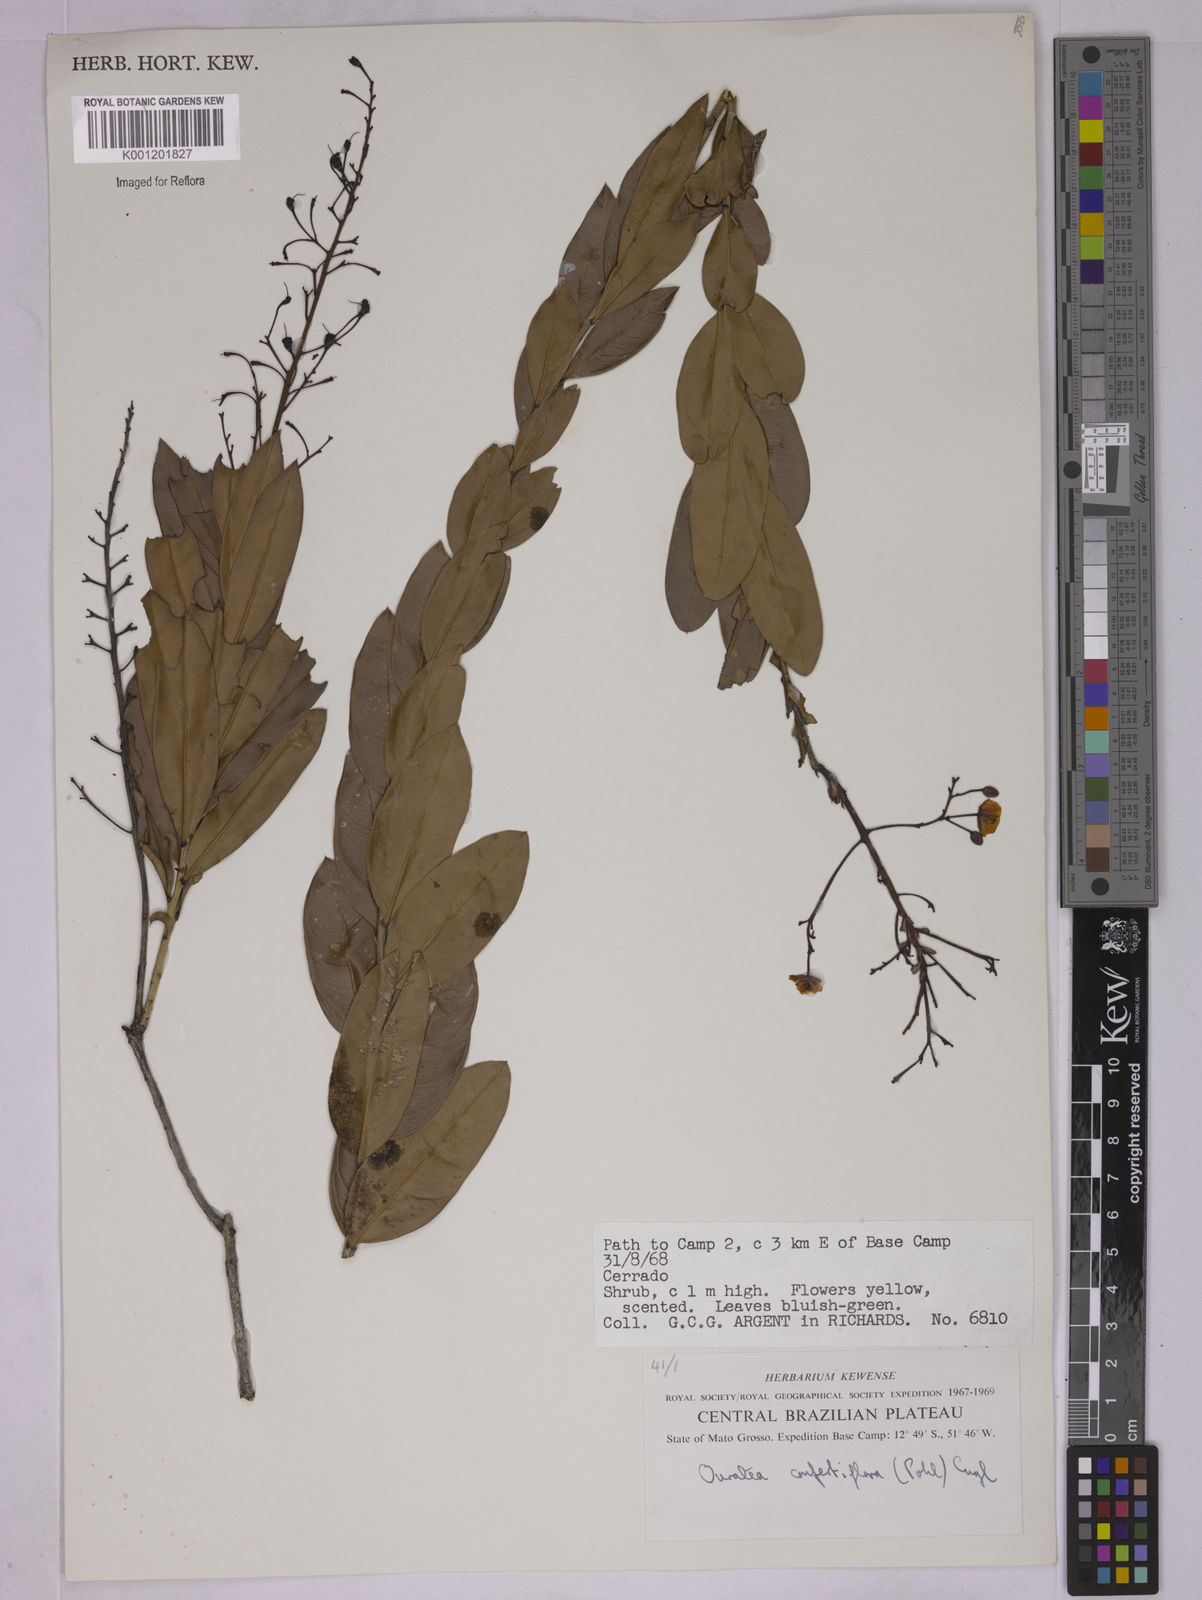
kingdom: Plantae
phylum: Tracheophyta
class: Magnoliopsida
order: Malpighiales
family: Ochnaceae
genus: Ouratea
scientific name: Ouratea confertiflora
